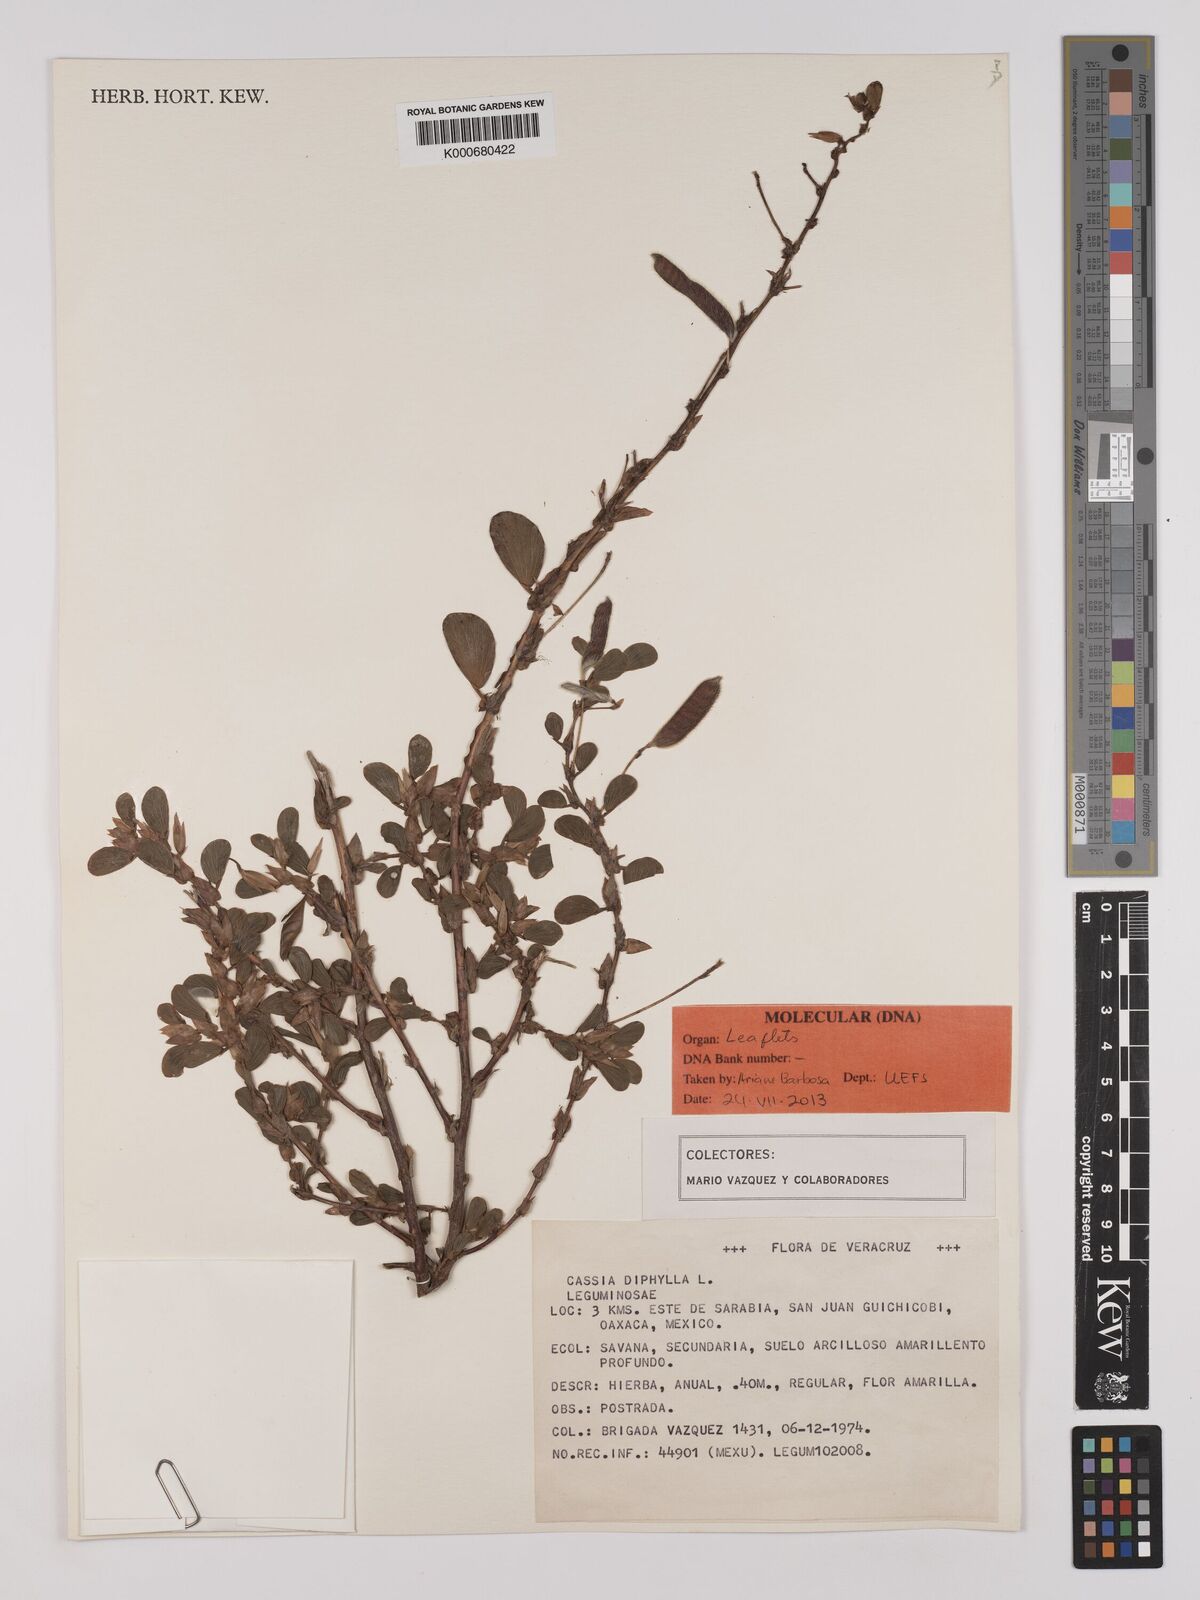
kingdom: Plantae
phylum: Tracheophyta
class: Magnoliopsida
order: Fabales
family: Fabaceae
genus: Chamaecrista
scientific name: Chamaecrista diphylla
